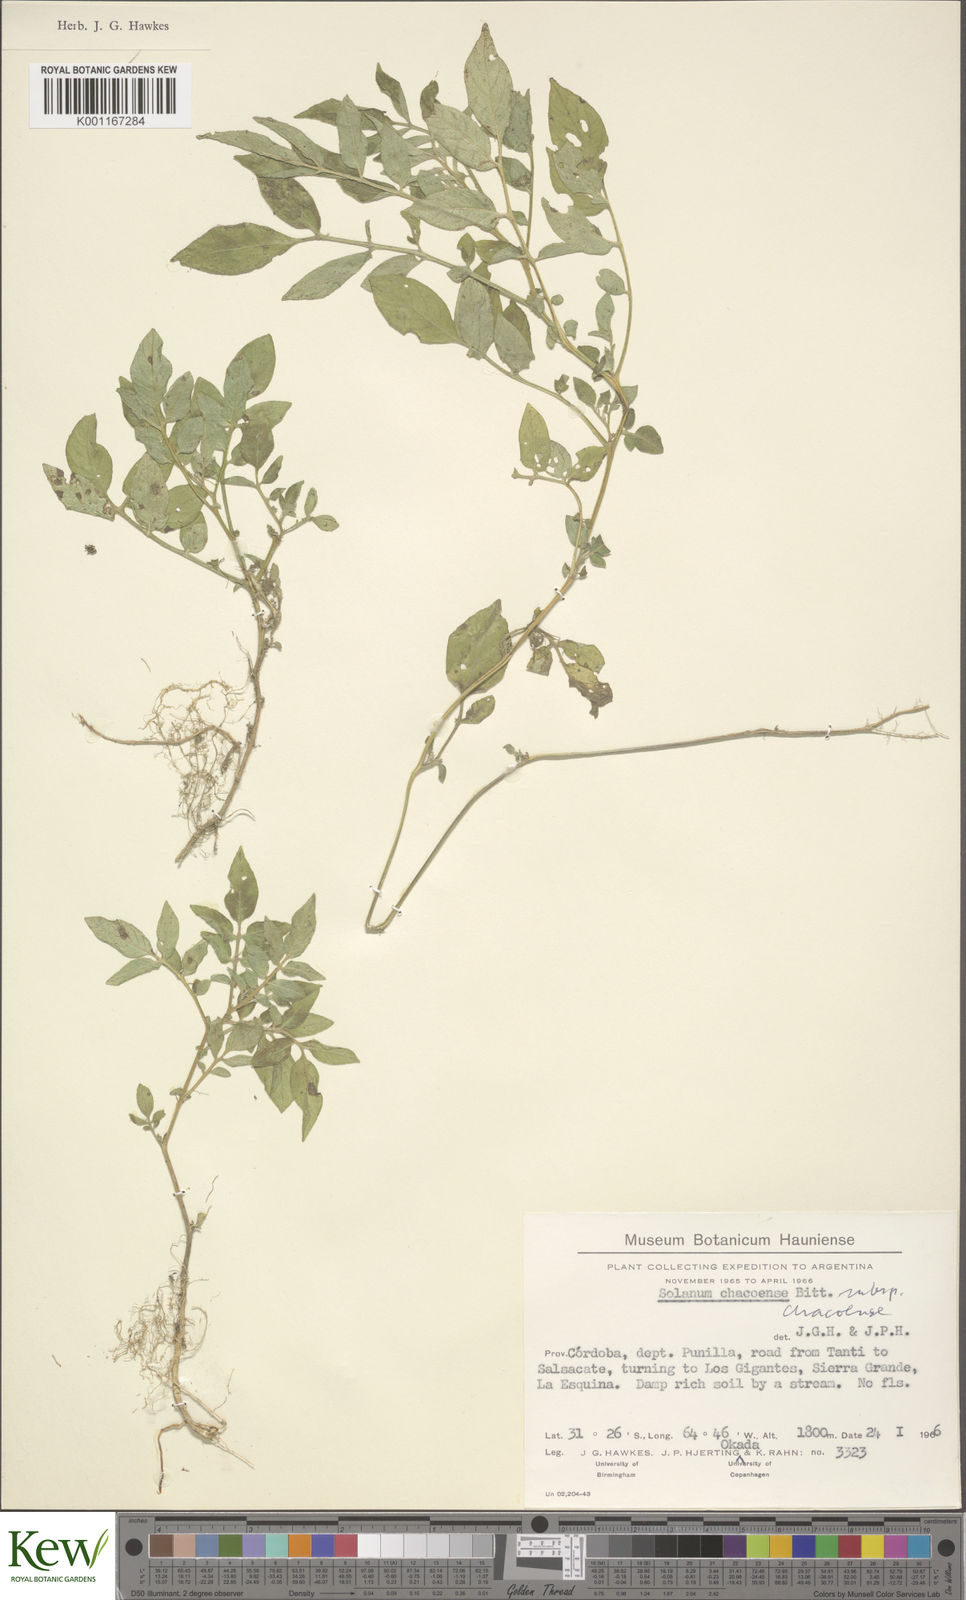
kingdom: Plantae
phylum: Tracheophyta
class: Magnoliopsida
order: Solanales
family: Solanaceae
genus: Solanum
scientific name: Solanum chacoense
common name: Chaco potato
